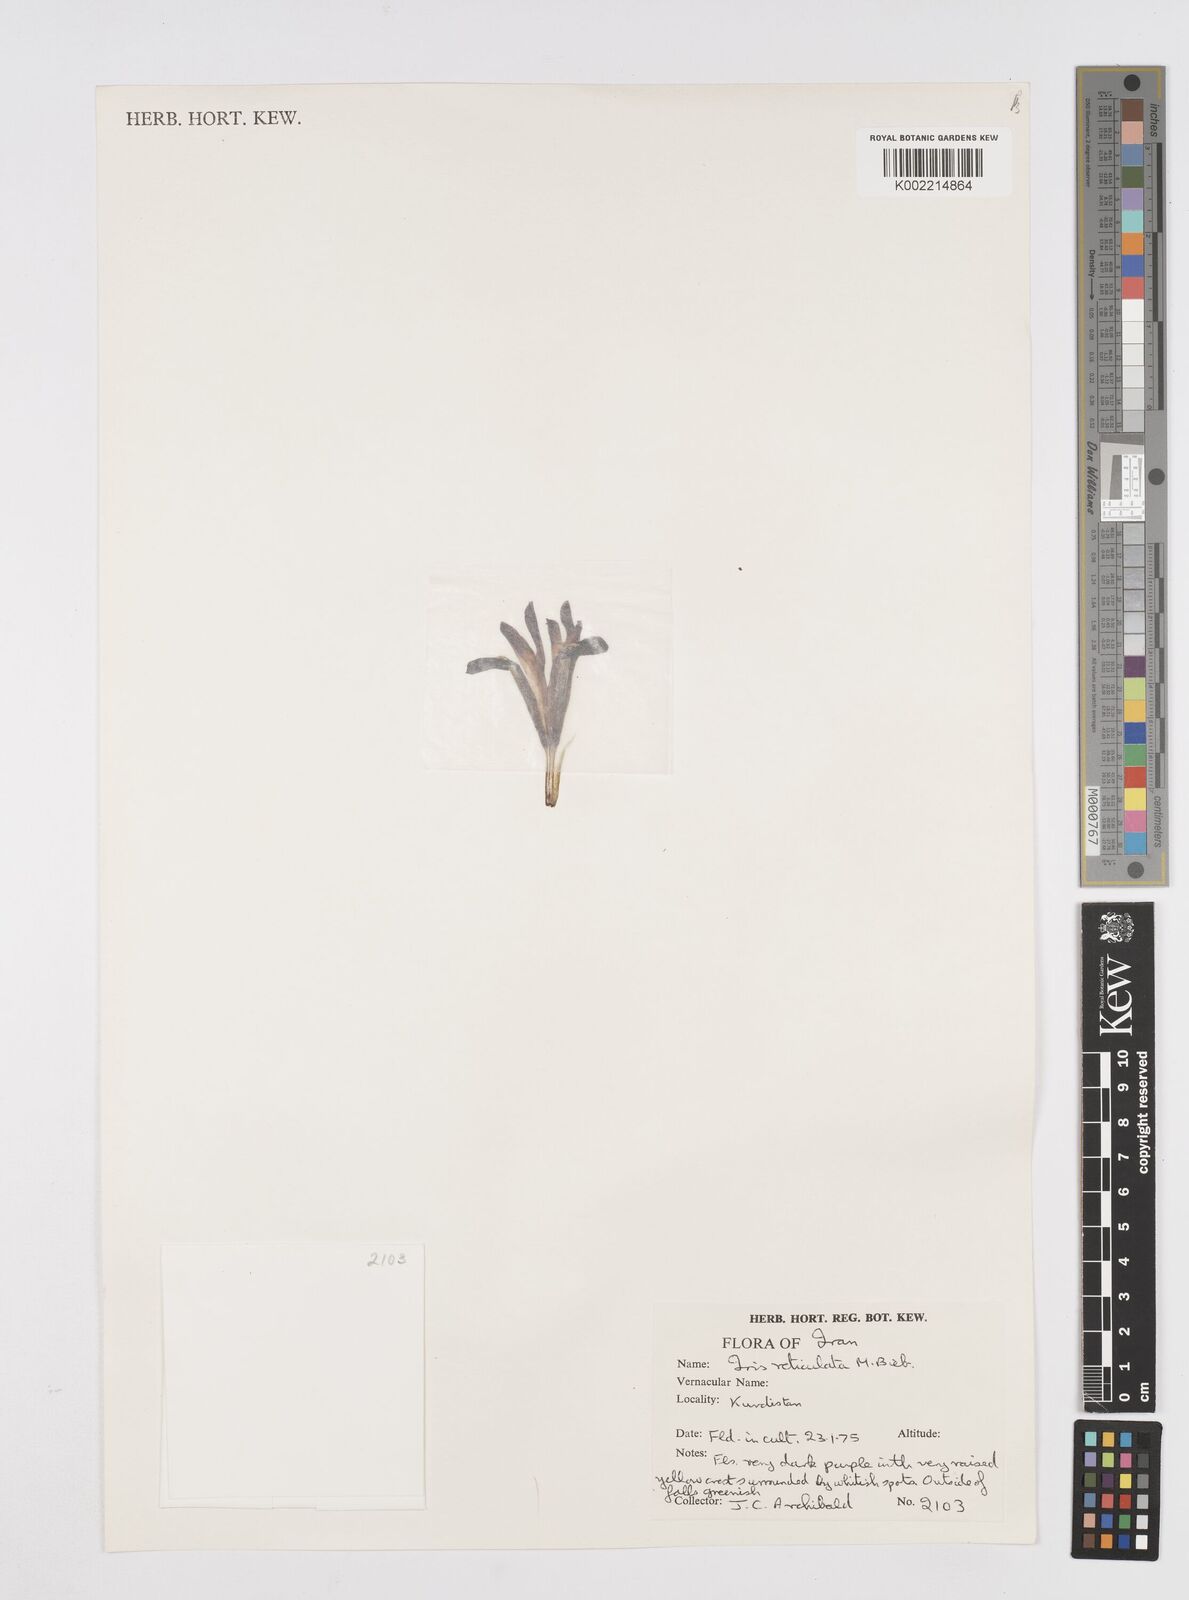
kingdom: Plantae
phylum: Tracheophyta
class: Liliopsida
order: Asparagales
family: Iridaceae
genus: Iris
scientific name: Iris reticulata
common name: Netted iris
